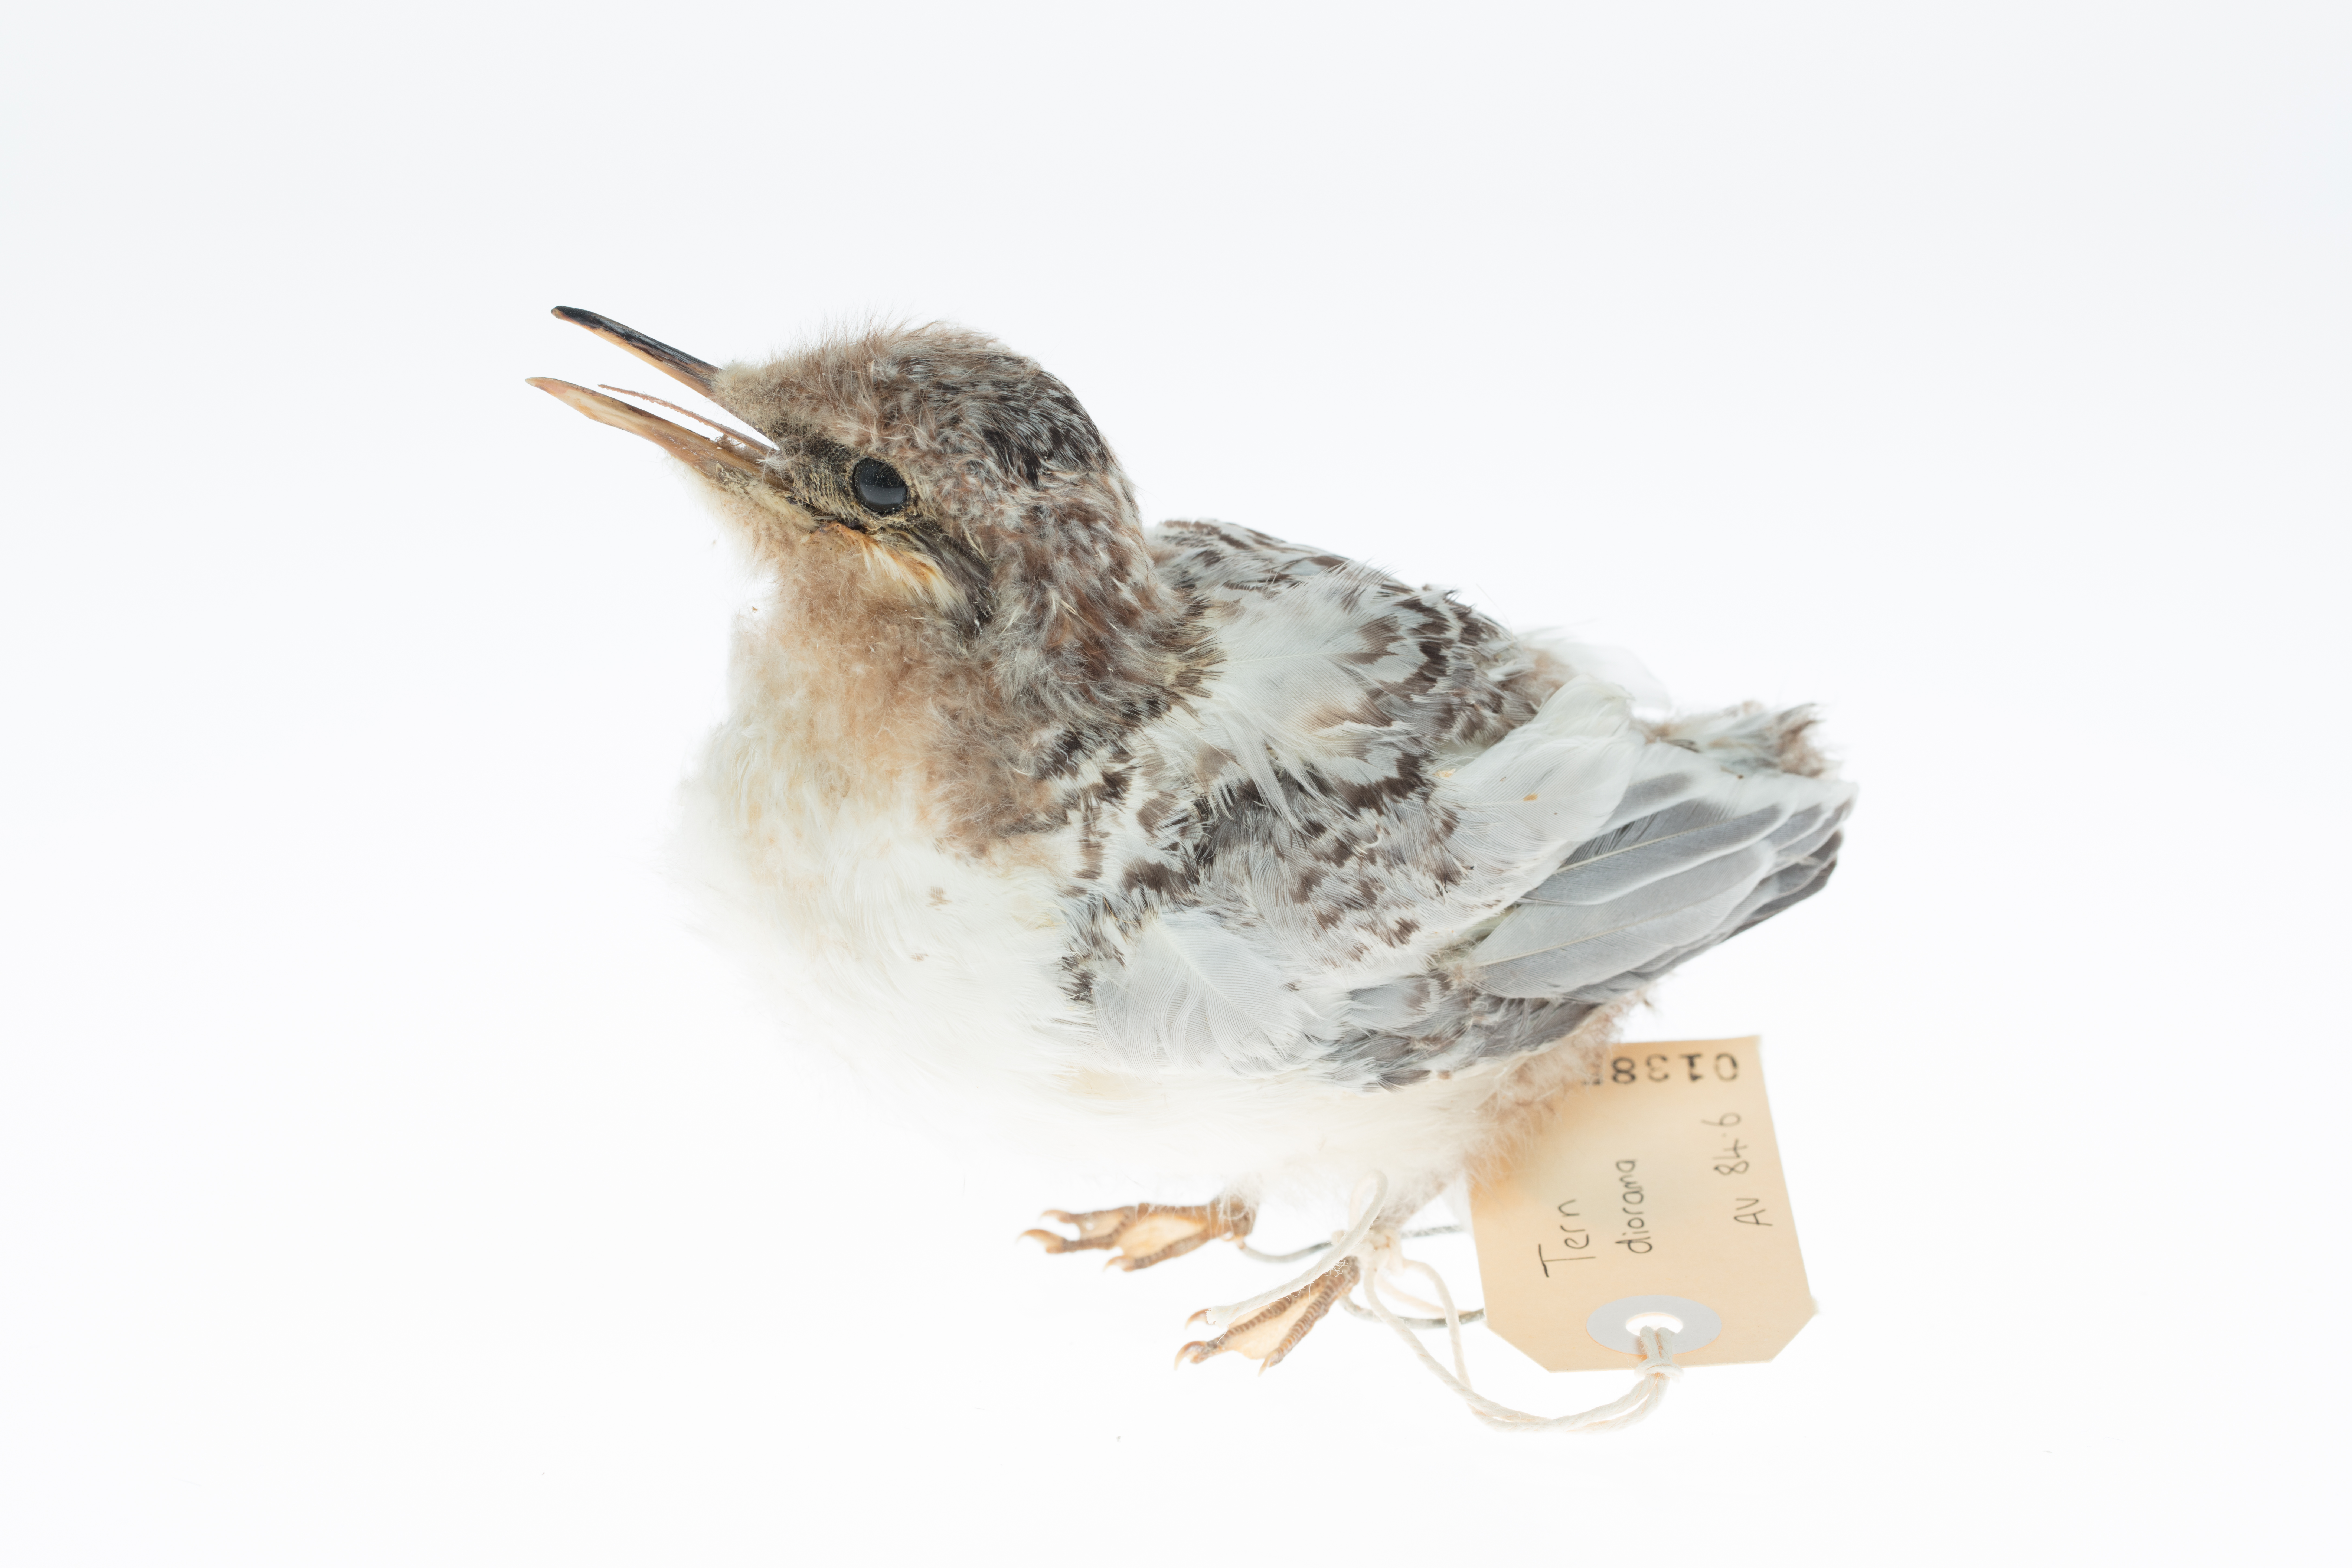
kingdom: Animalia
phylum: Chordata
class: Aves
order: Charadriiformes
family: Laridae
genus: Sterna
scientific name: Sterna striata
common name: White-fronted tern
